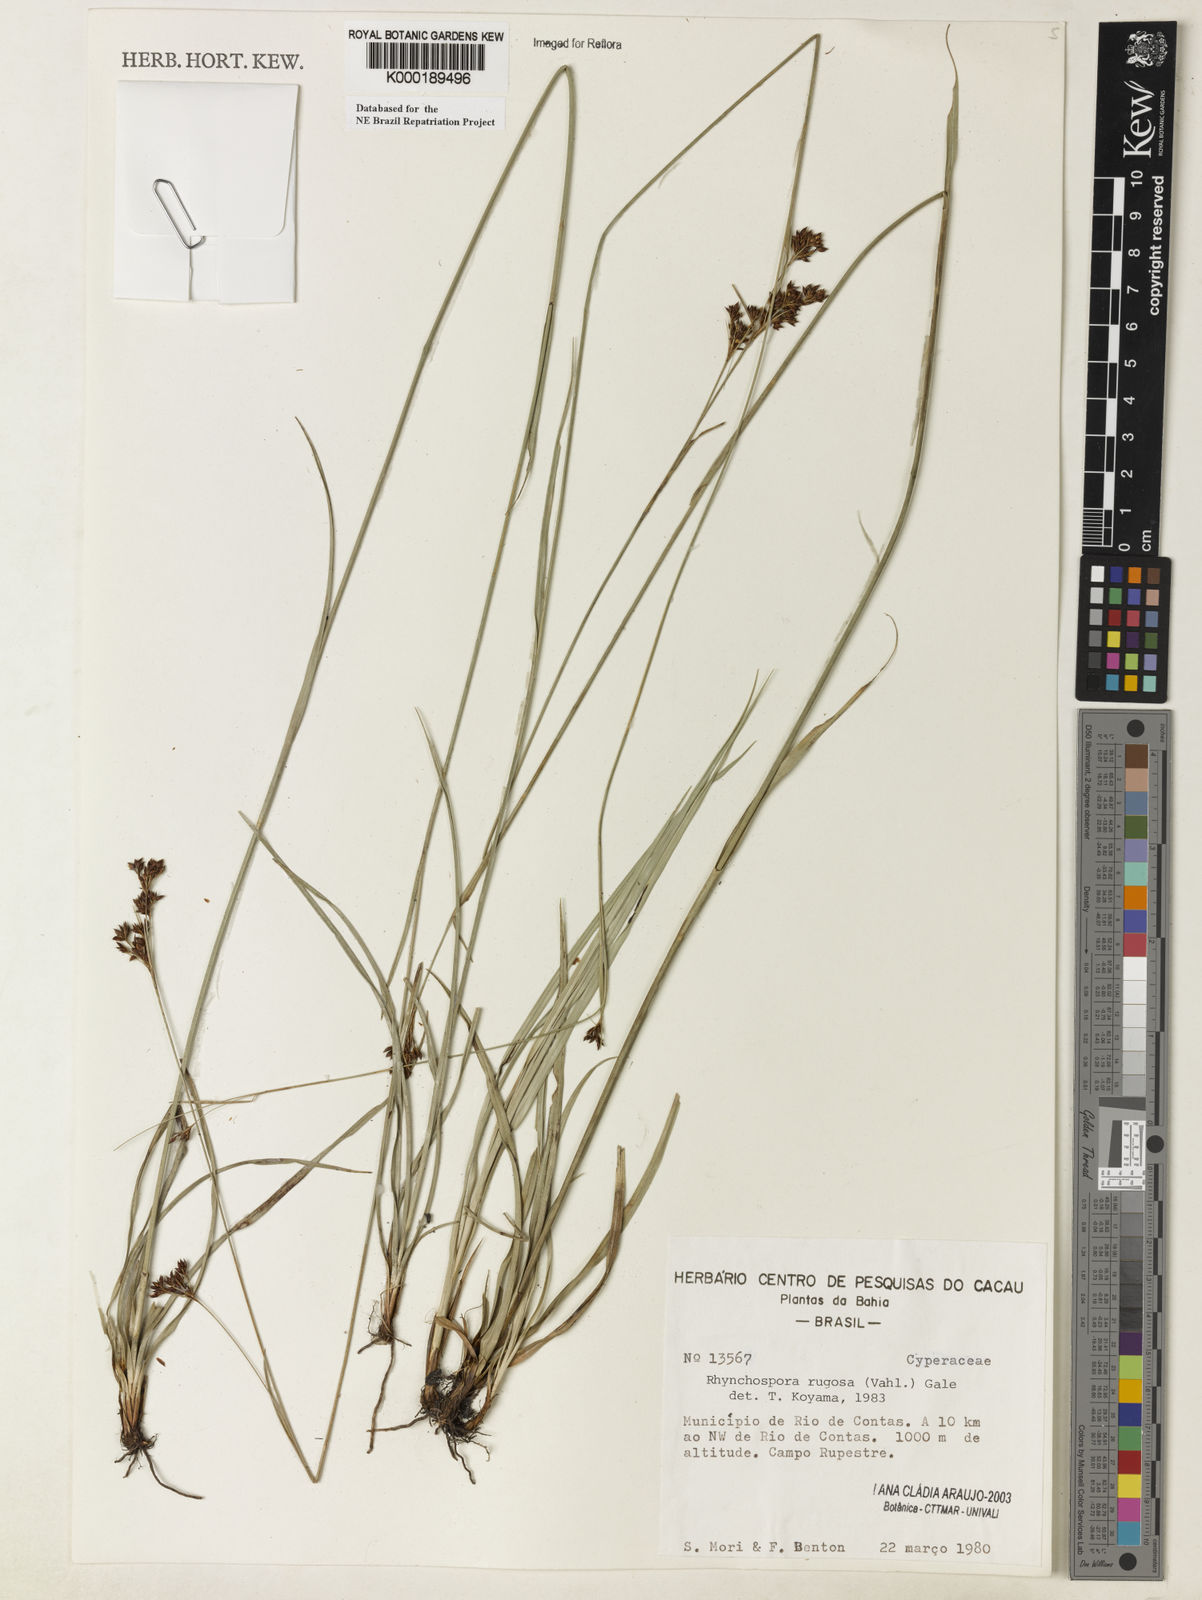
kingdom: Plantae
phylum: Tracheophyta
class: Liliopsida
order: Poales
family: Cyperaceae
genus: Rhynchospora
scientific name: Rhynchospora rugosa
